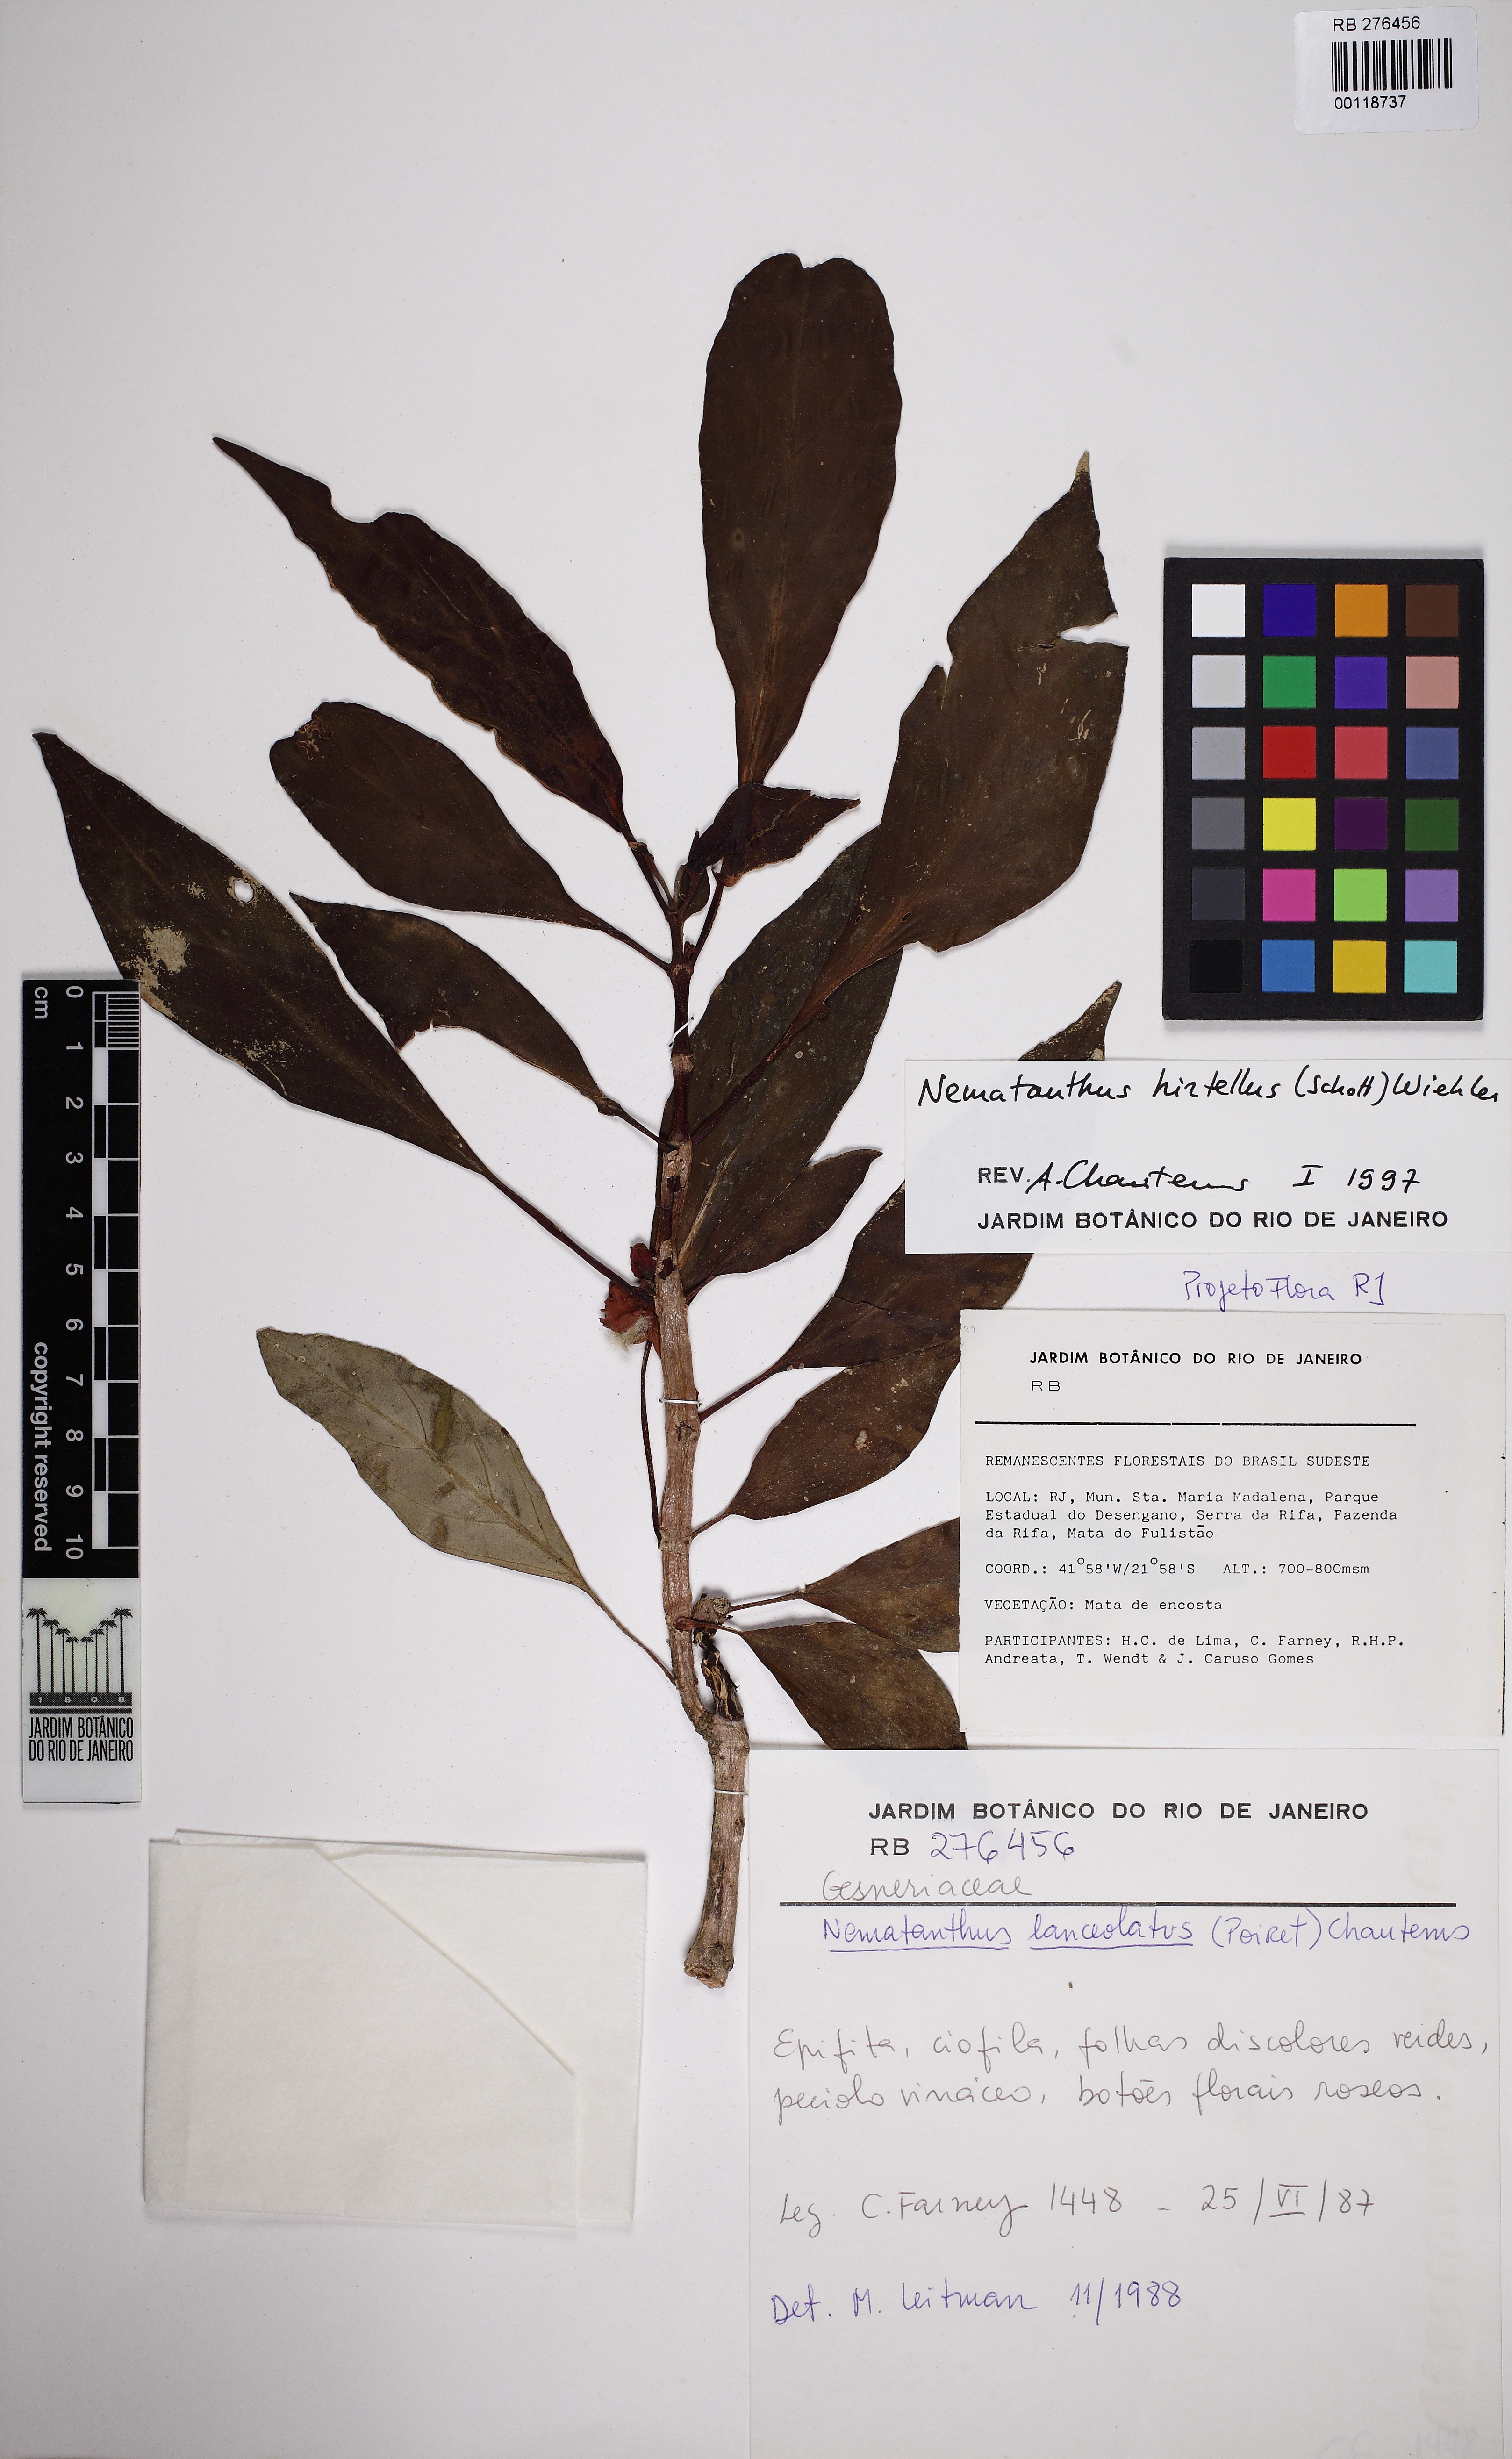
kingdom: Plantae
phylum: Tracheophyta
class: Magnoliopsida
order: Lamiales
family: Gesneriaceae
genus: Nematanthus
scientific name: Nematanthus
